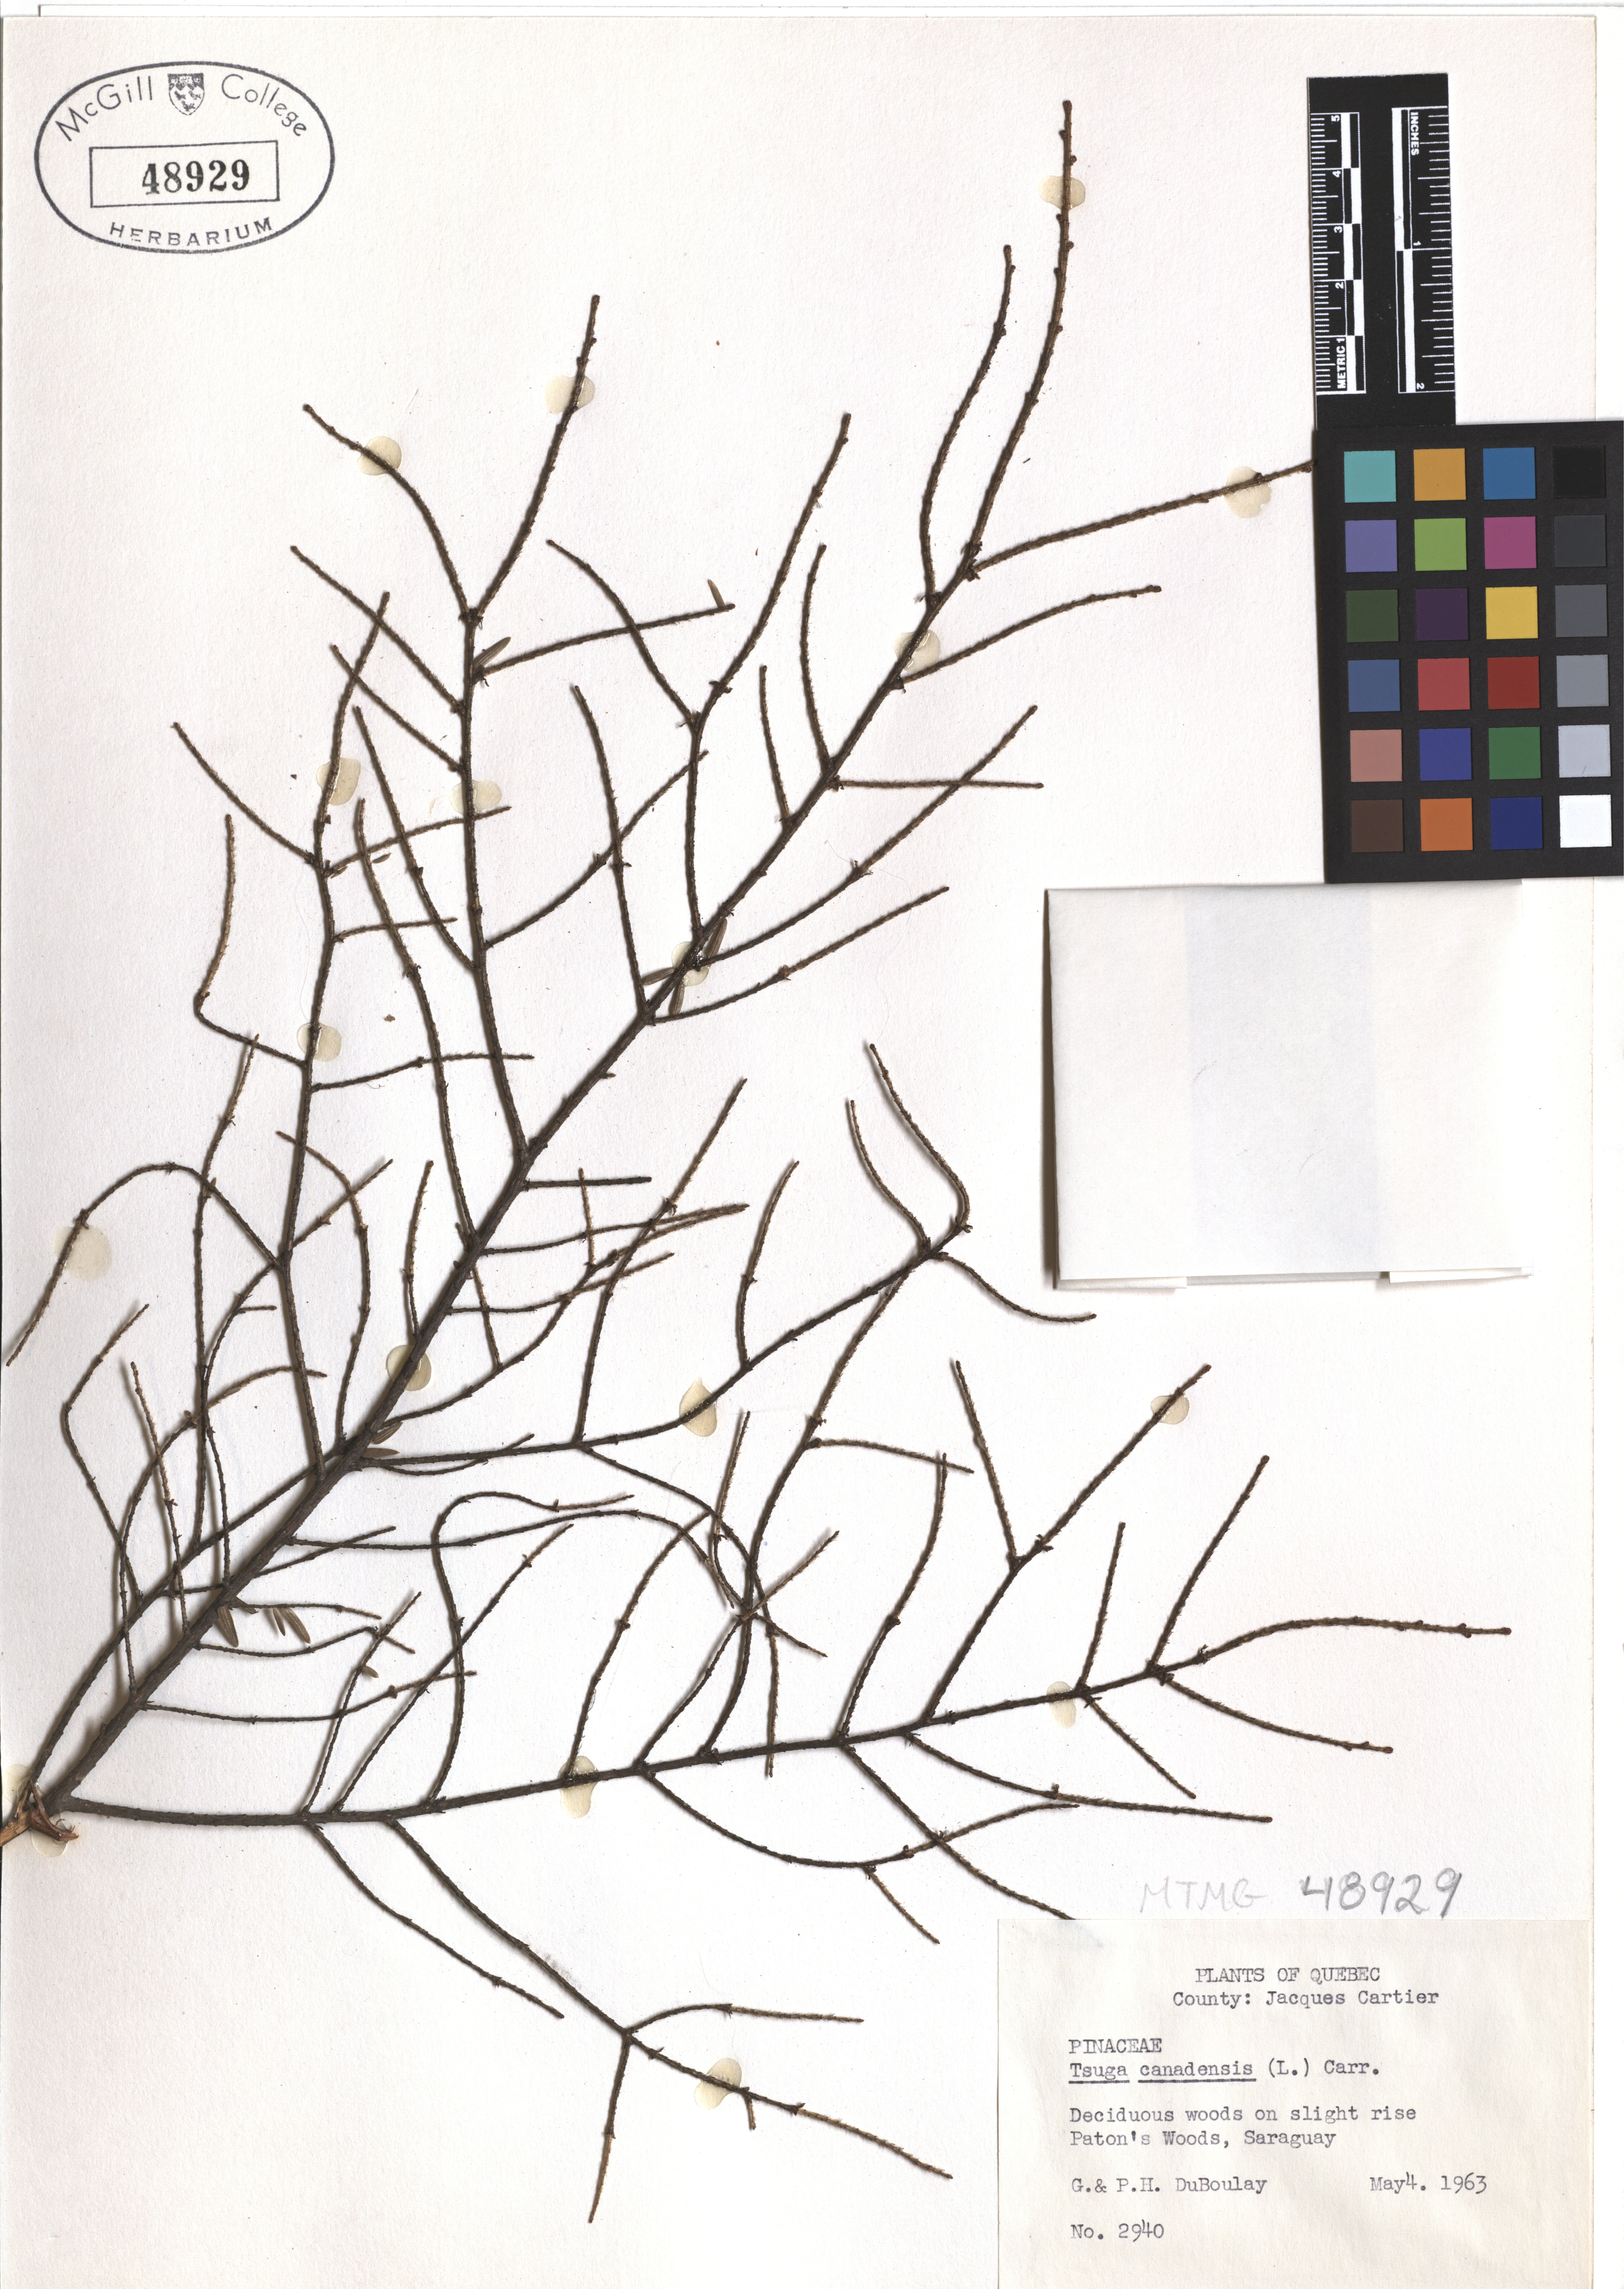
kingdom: Plantae
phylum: Tracheophyta
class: Pinopsida
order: Pinales
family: Pinaceae
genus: Tsuga
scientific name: Tsuga canadensis
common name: Eastern hemlock
